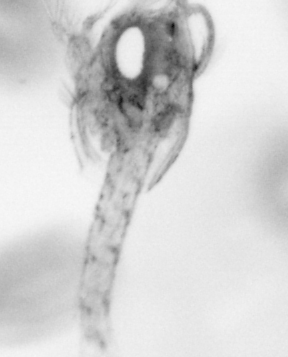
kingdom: Animalia
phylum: Arthropoda
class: Copepoda
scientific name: Copepoda
